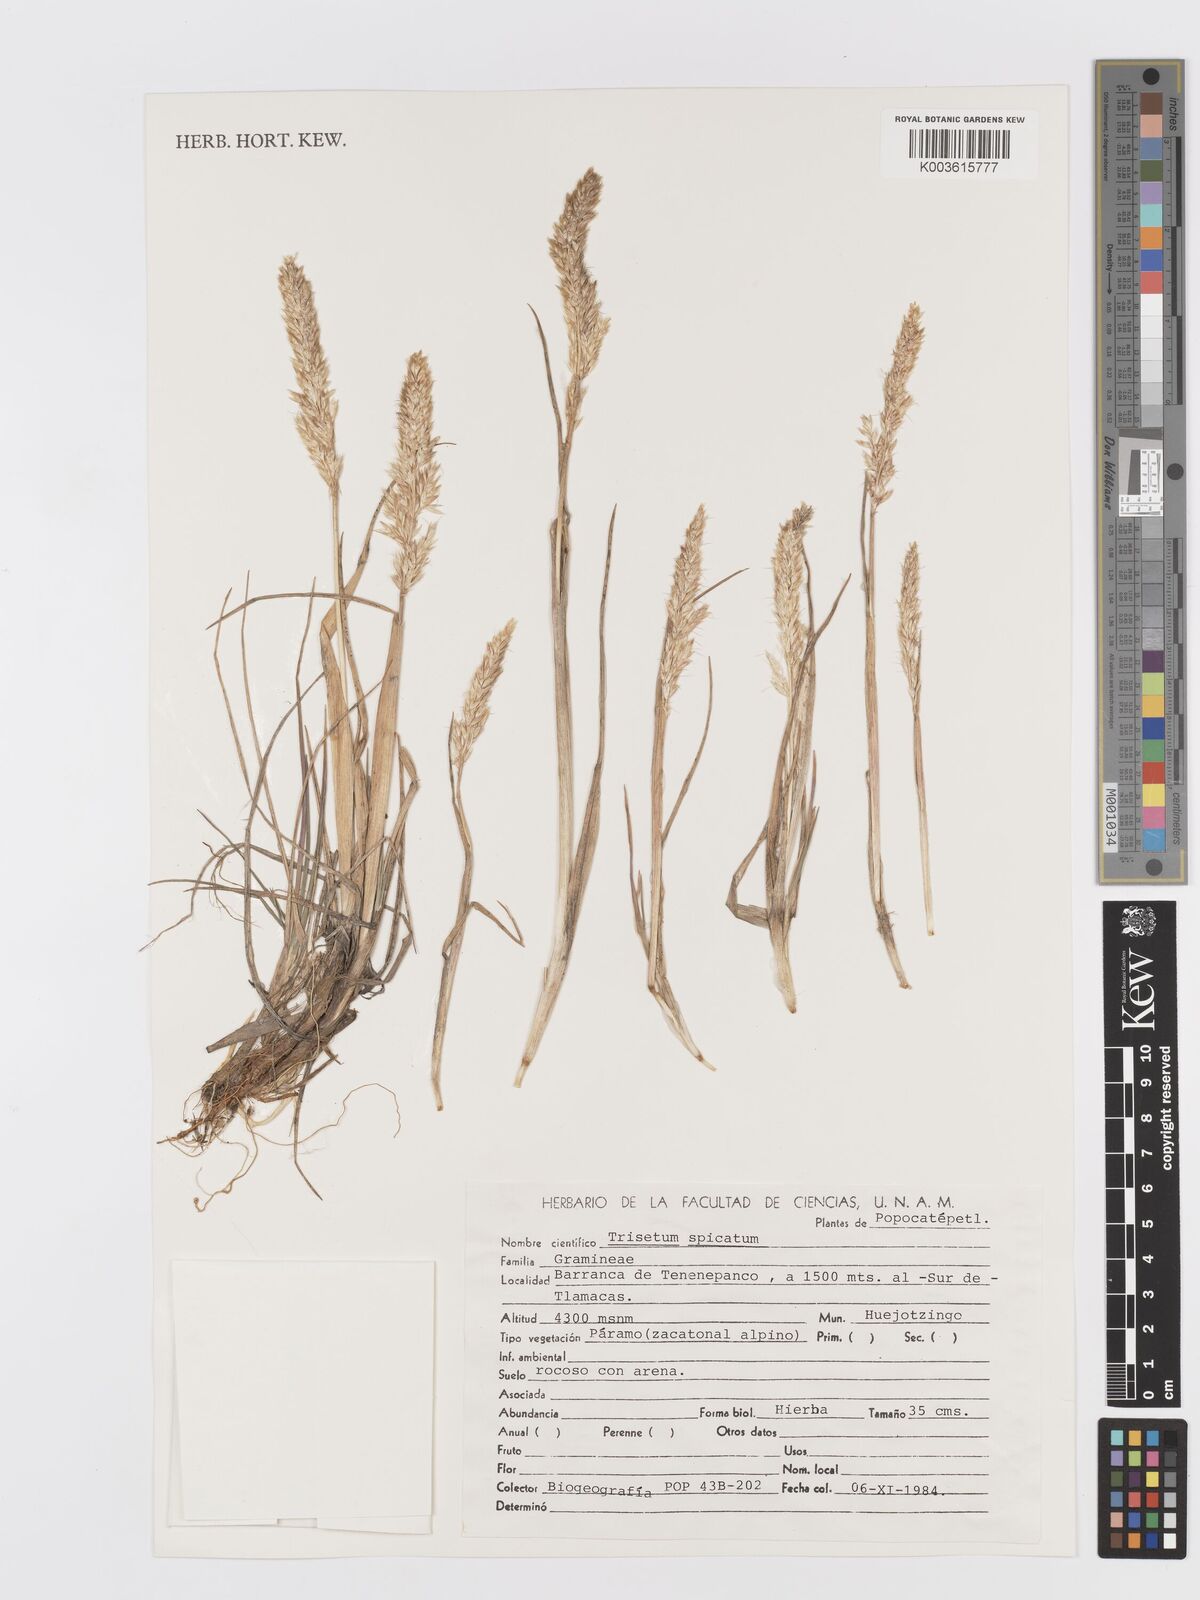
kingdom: Plantae
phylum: Tracheophyta
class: Liliopsida
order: Poales
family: Poaceae
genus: Koeleria
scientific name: Koeleria spicata
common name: Mountain trisetum
